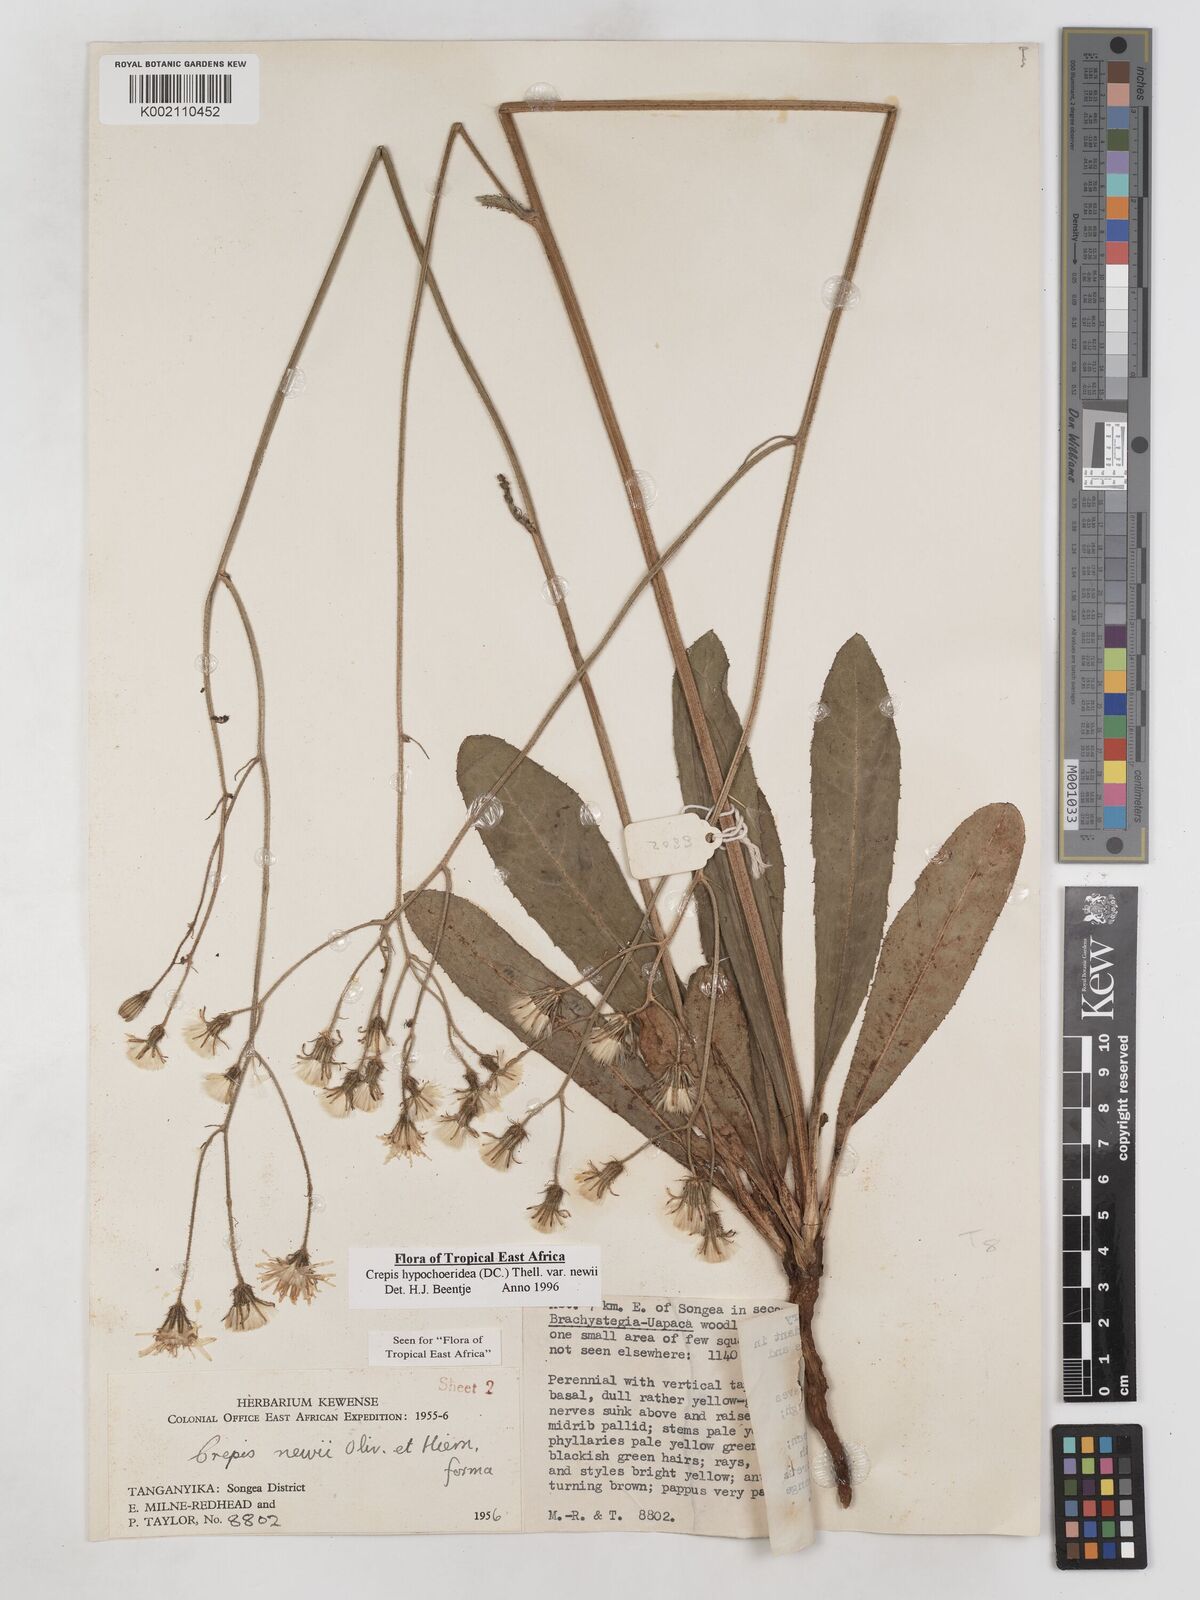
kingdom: Plantae
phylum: Tracheophyta
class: Magnoliopsida
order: Asterales
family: Asteraceae
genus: Crepis
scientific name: Crepis hypochoeridea
